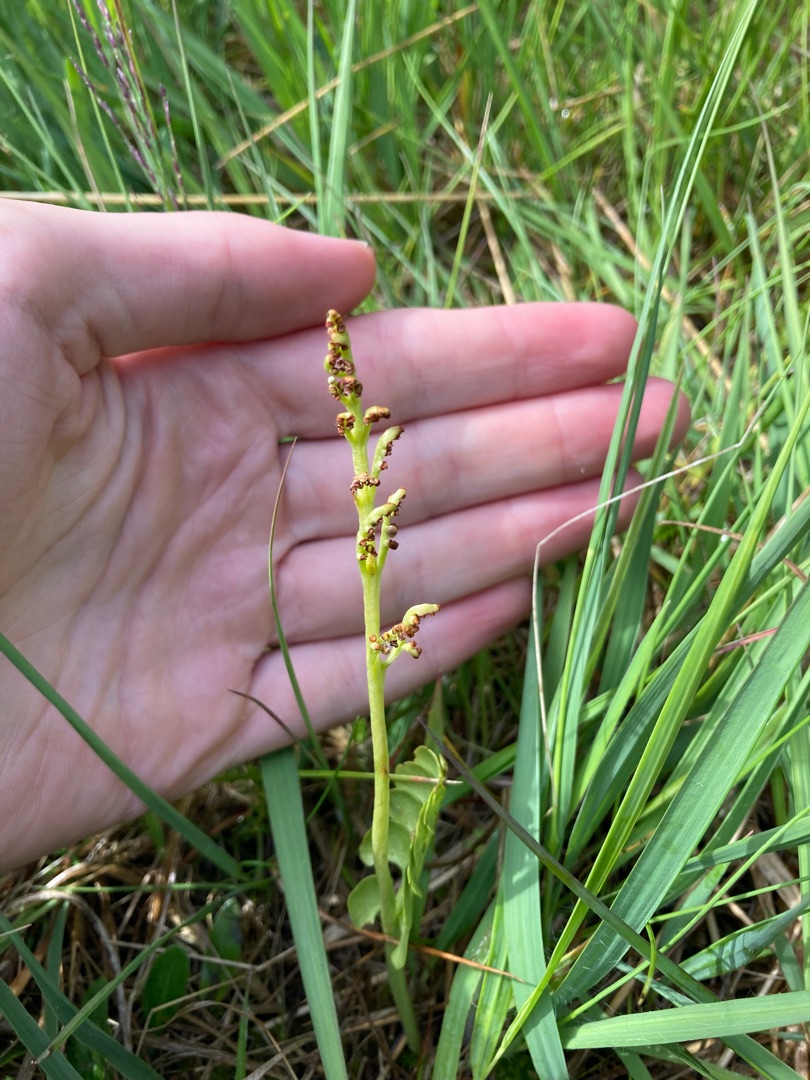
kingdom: Plantae
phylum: Tracheophyta
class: Polypodiopsida
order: Ophioglossales
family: Ophioglossaceae
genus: Botrychium
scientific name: Botrychium lunaria
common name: Almindelig månerude
